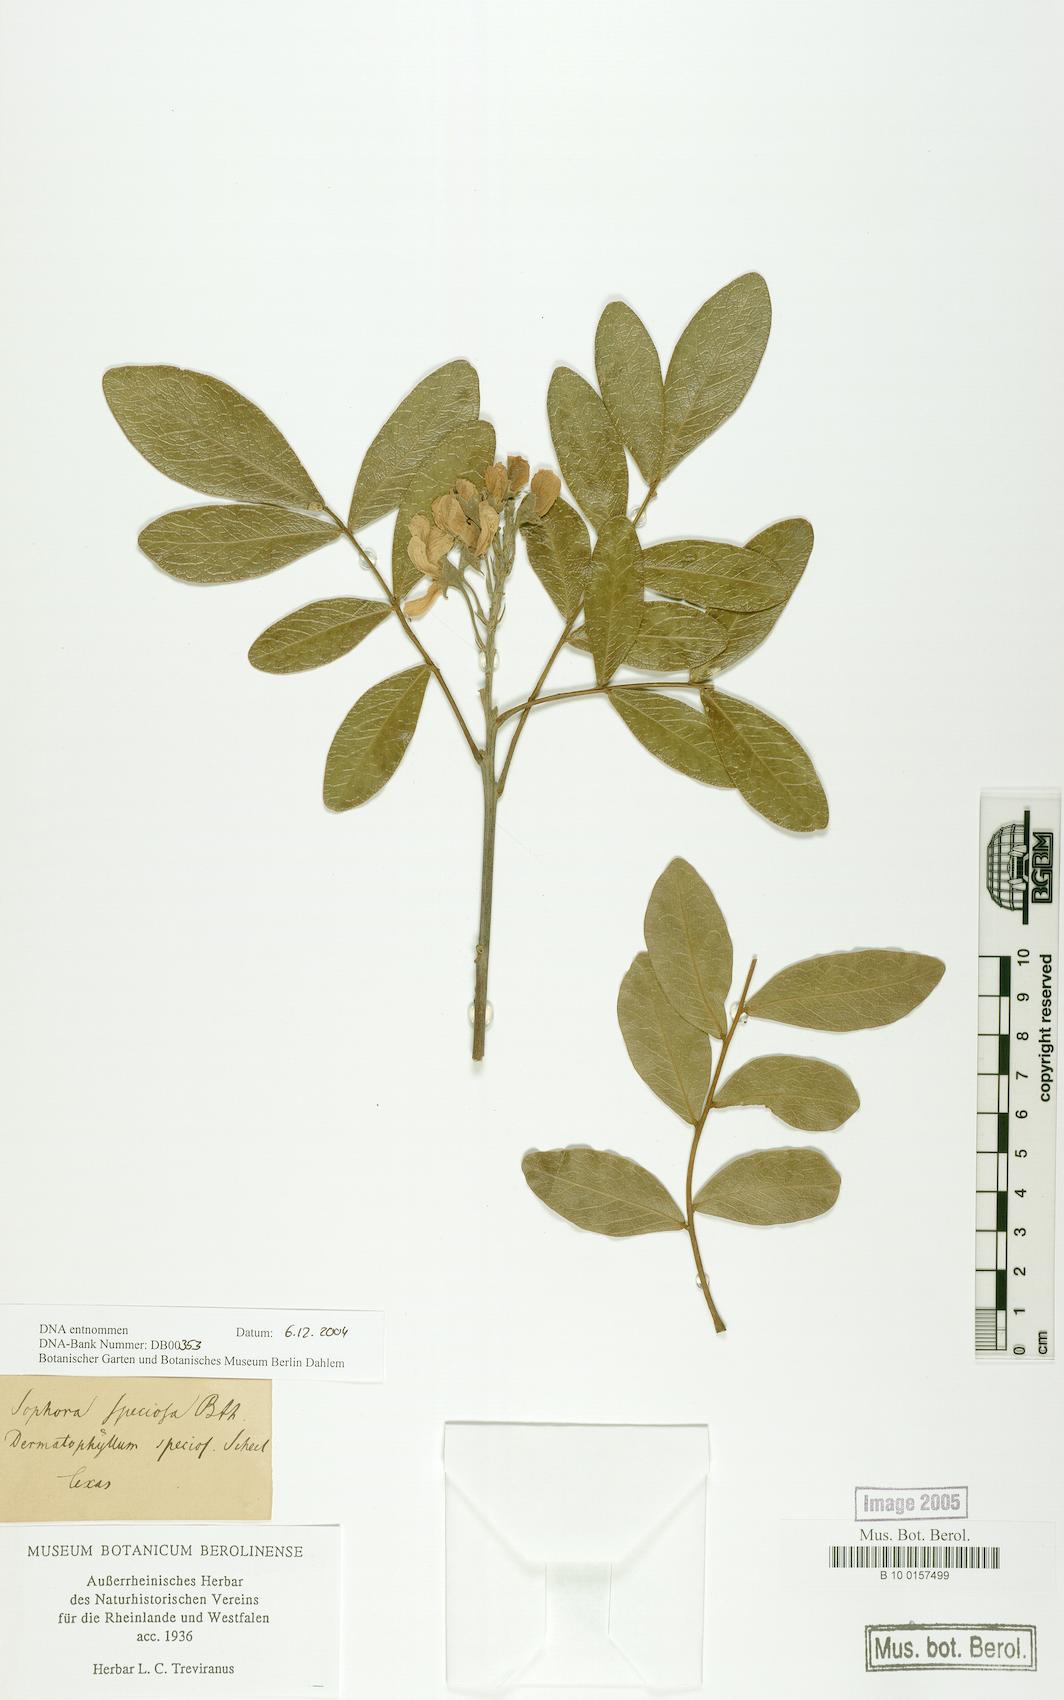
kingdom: Plantae
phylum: Tracheophyta
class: Magnoliopsida
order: Fabales
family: Fabaceae
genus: Dermatophyllum
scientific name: Dermatophyllum
